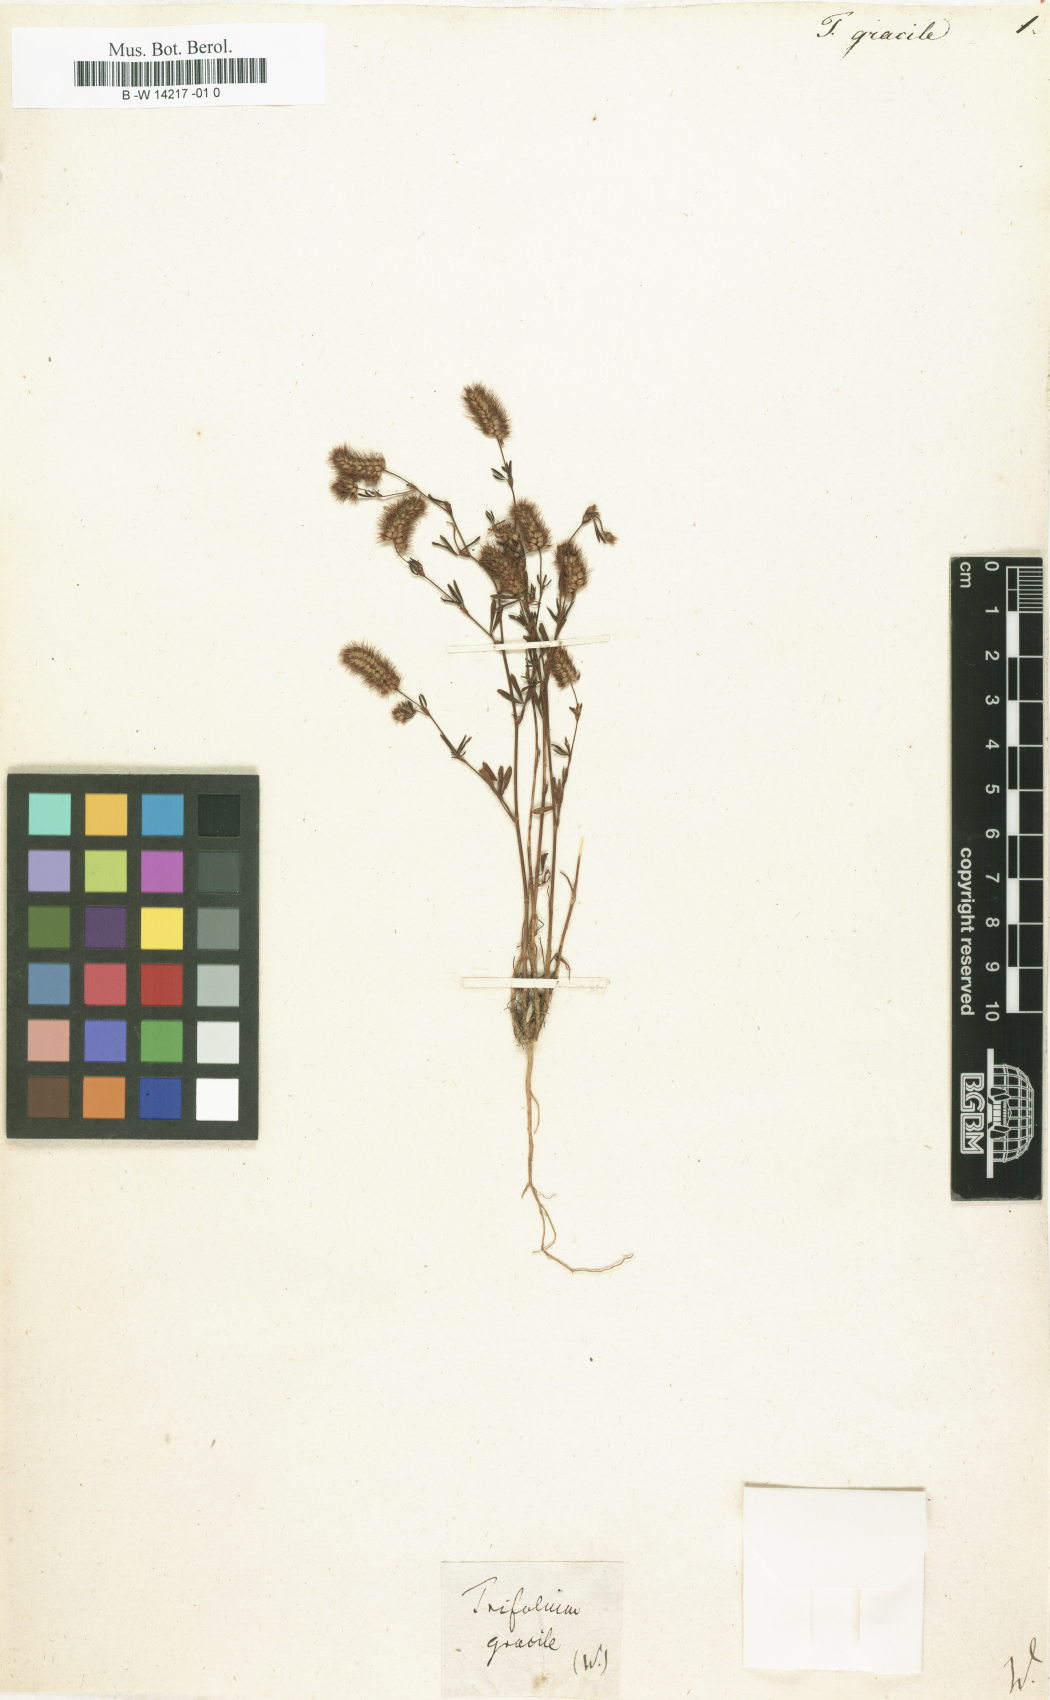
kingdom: Plantae
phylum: Tracheophyta
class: Magnoliopsida
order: Fabales
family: Fabaceae
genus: Trifolium
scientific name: Trifolium arvense
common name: Hare's-foot clover
